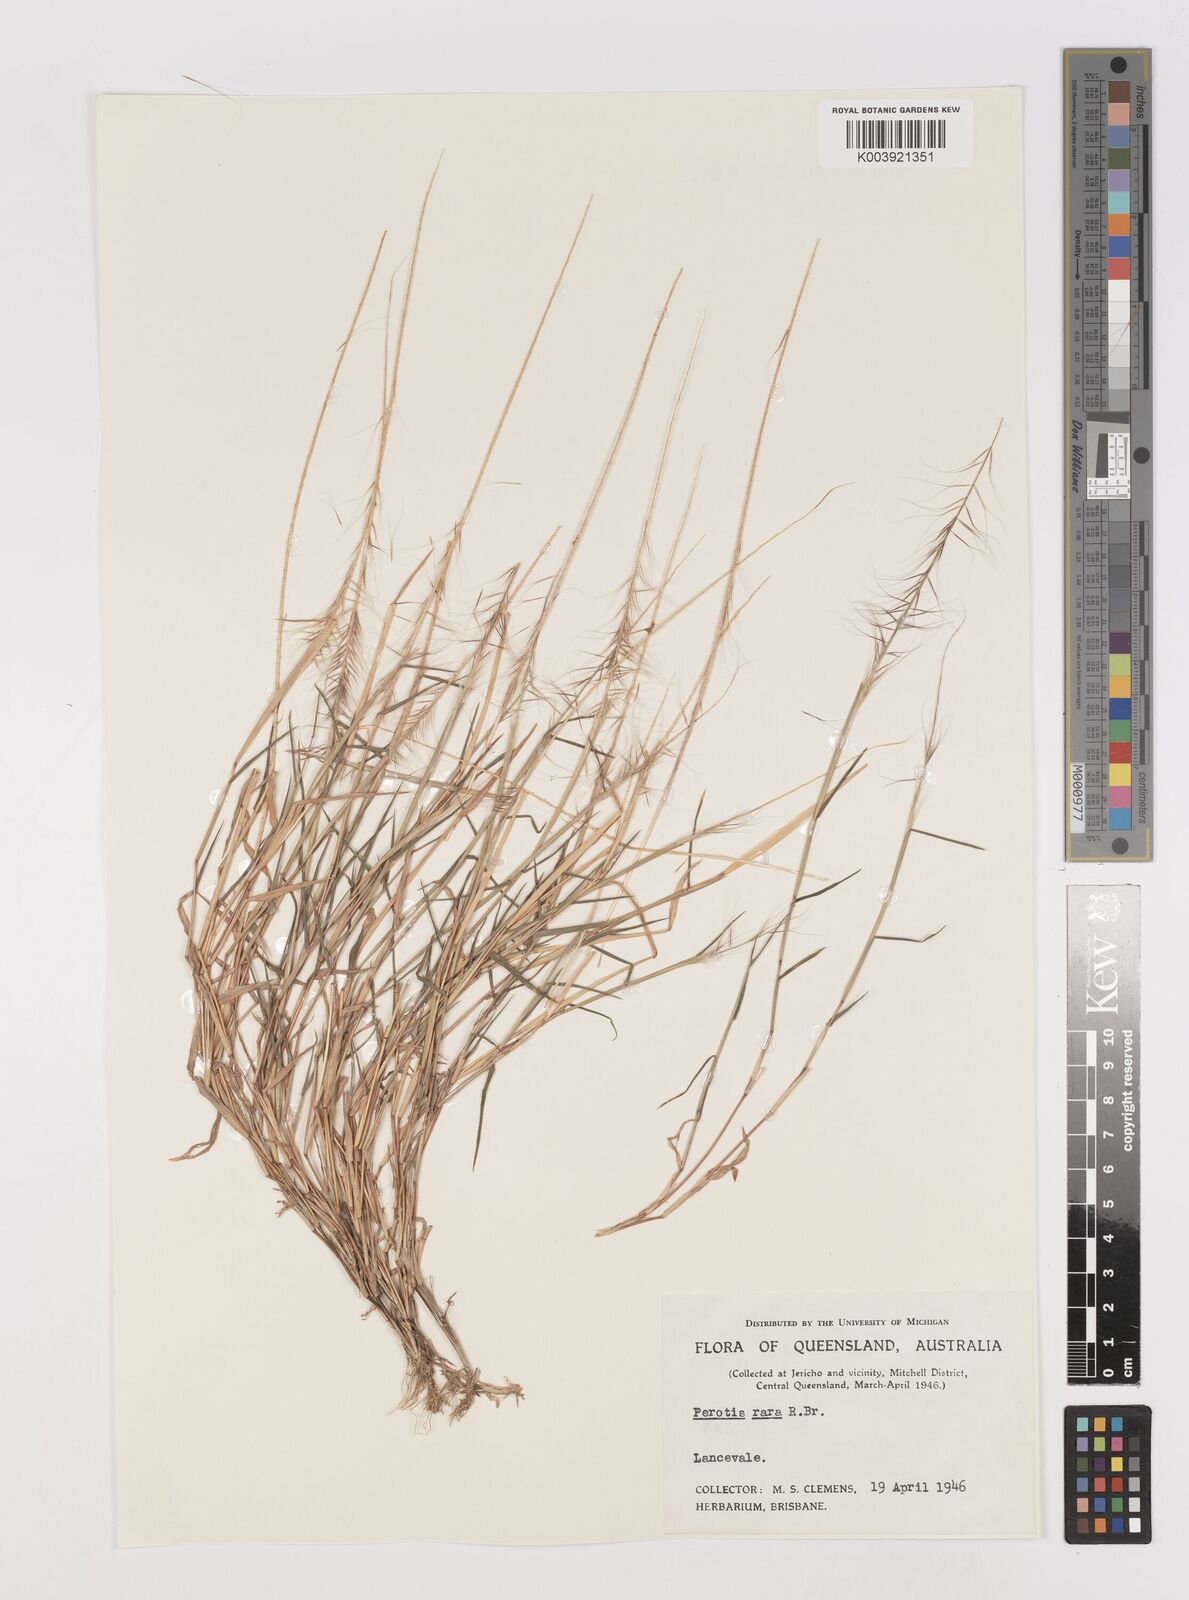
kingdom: Plantae
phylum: Tracheophyta
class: Liliopsida
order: Poales
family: Poaceae
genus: Perotis
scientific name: Perotis rara
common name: Comet grass
